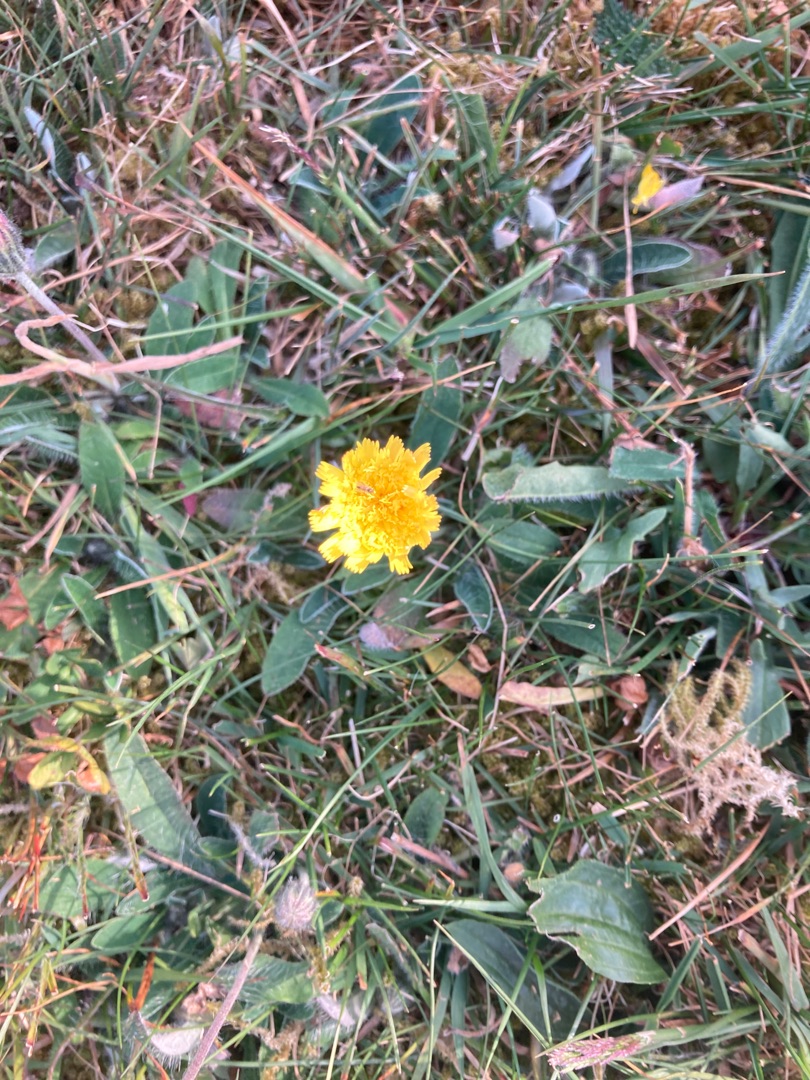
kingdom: Plantae
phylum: Tracheophyta
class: Magnoliopsida
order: Asterales
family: Asteraceae
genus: Pilosella
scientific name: Pilosella officinarum
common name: Håret høgeurt
